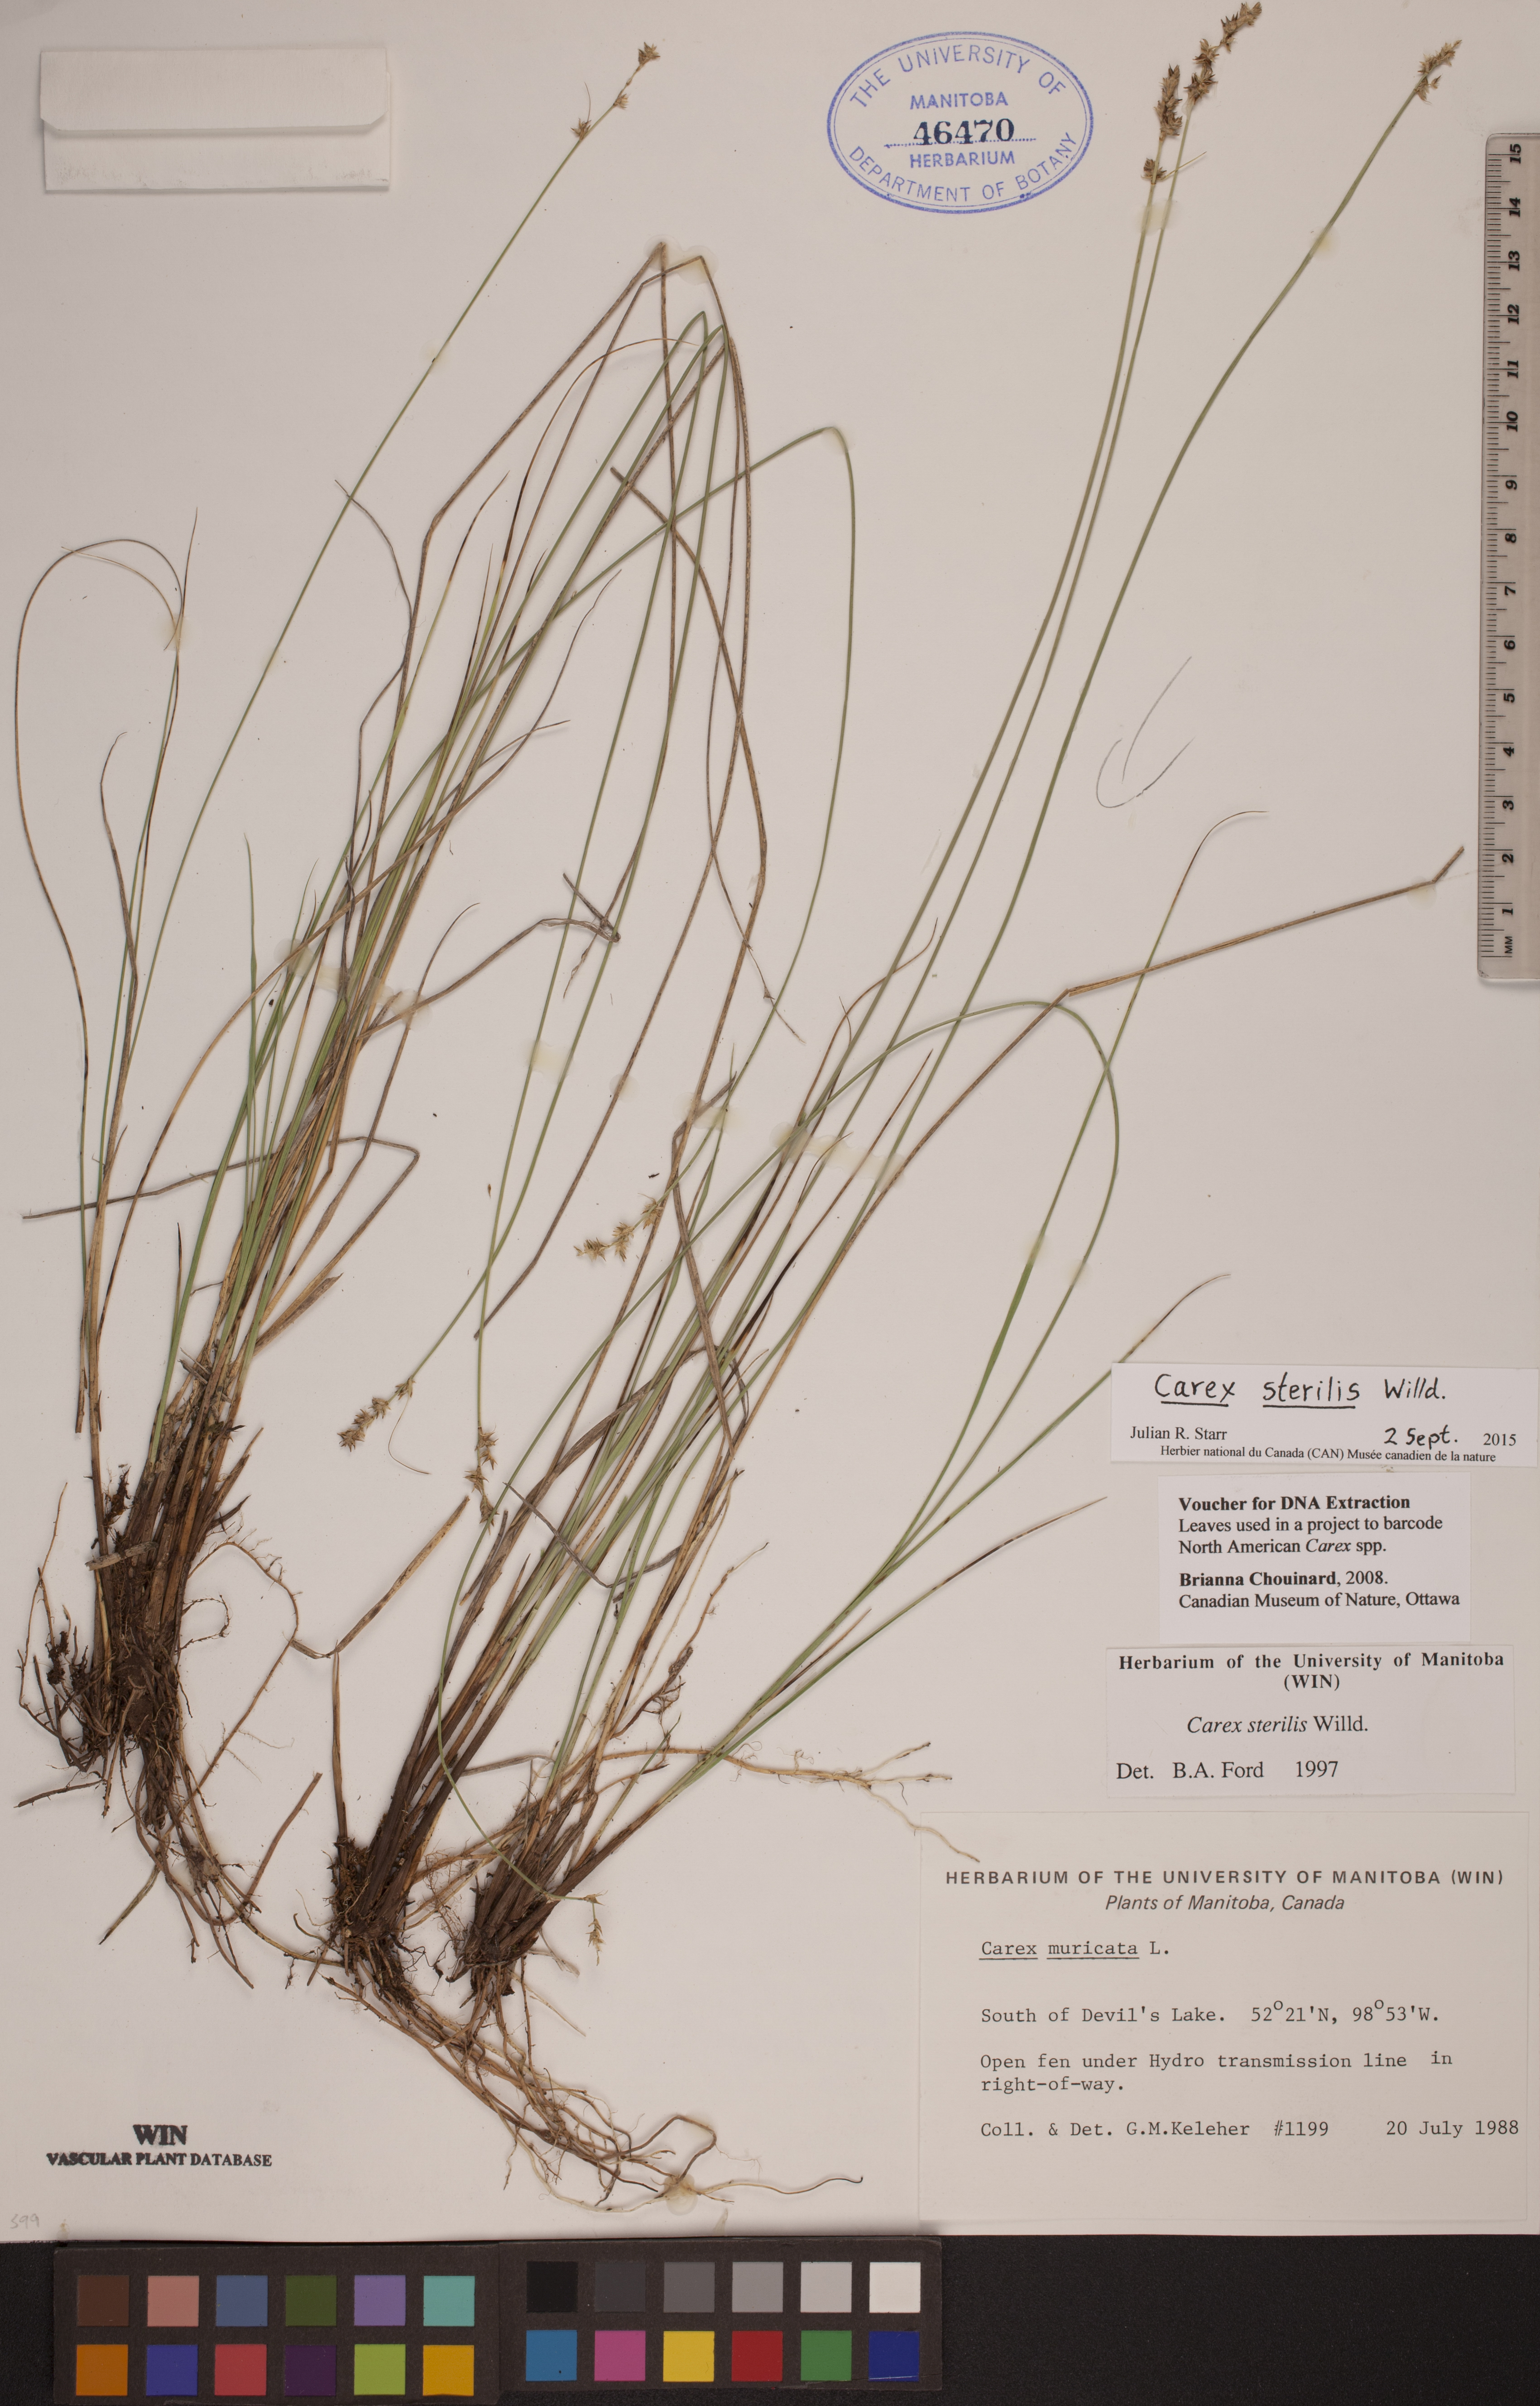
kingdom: Plantae
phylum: Tracheophyta
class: Liliopsida
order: Poales
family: Cyperaceae
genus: Carex
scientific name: Carex sterilis
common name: Dioecious sedge
